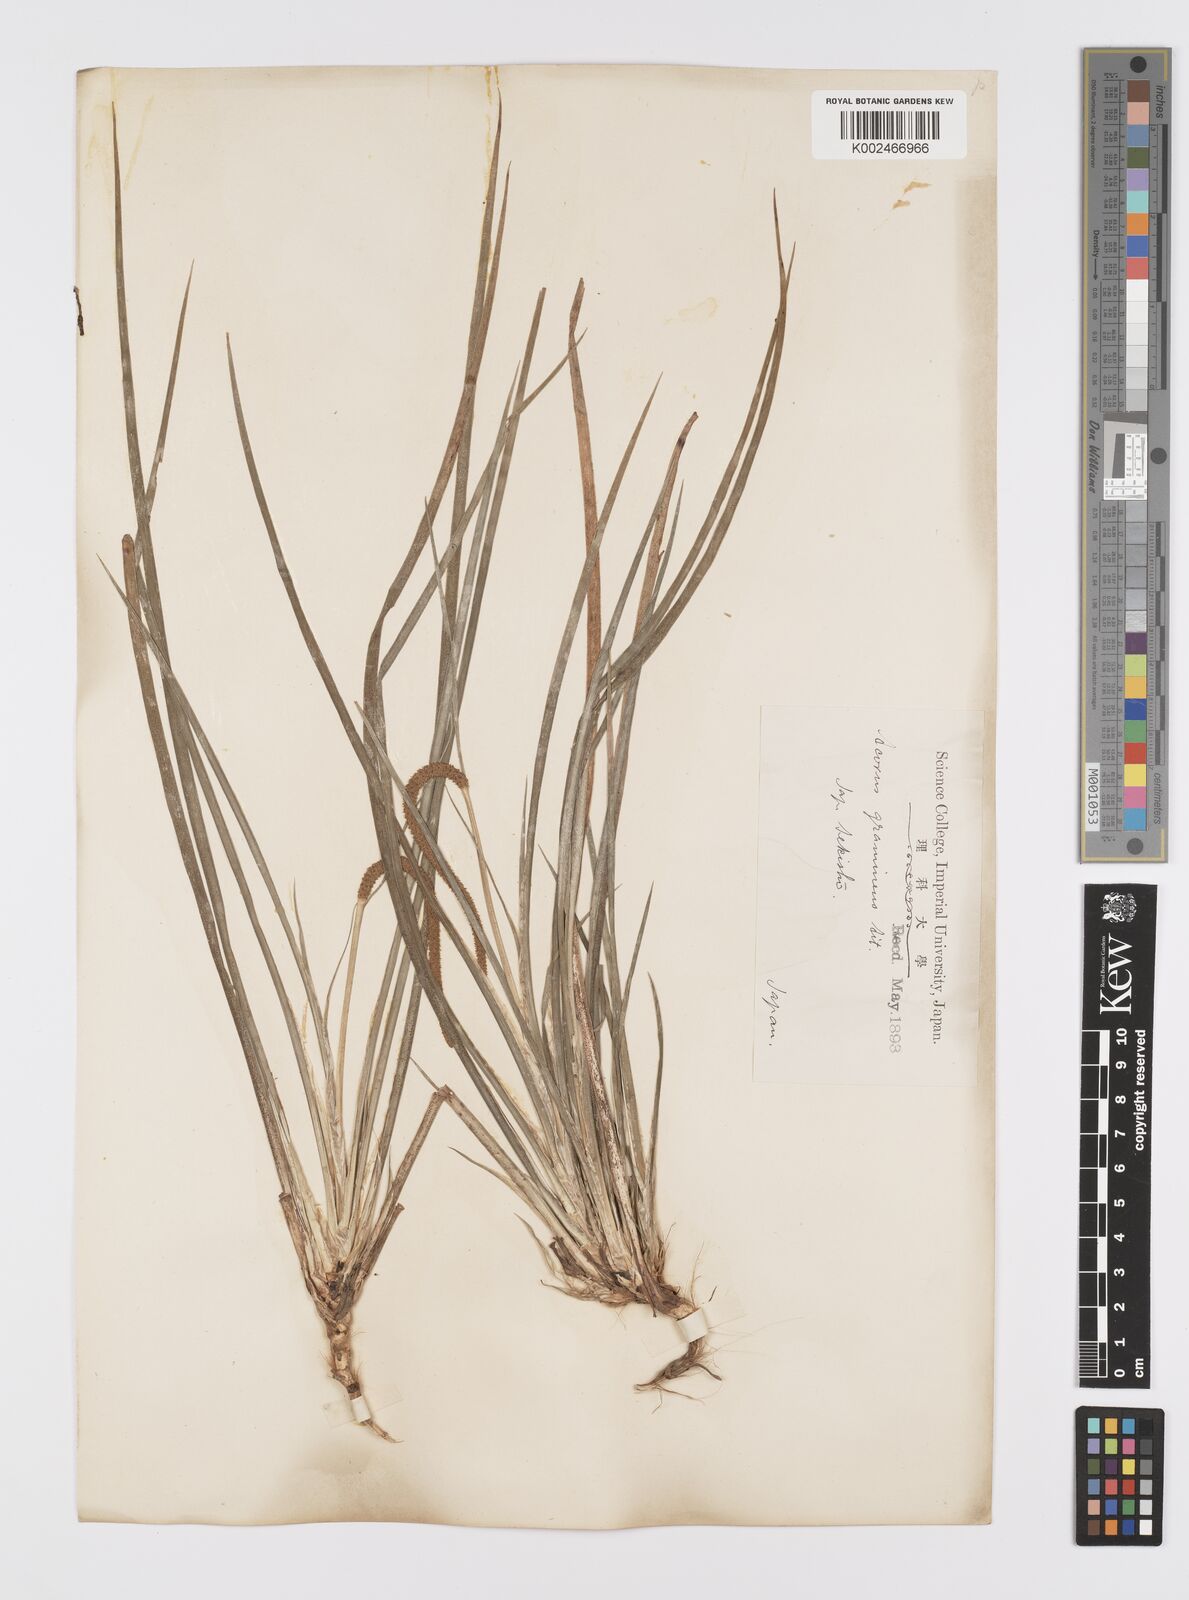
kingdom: Plantae
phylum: Tracheophyta
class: Liliopsida
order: Acorales
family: Acoraceae
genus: Acorus
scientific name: Acorus gramineus
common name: Slender sweet-flag
